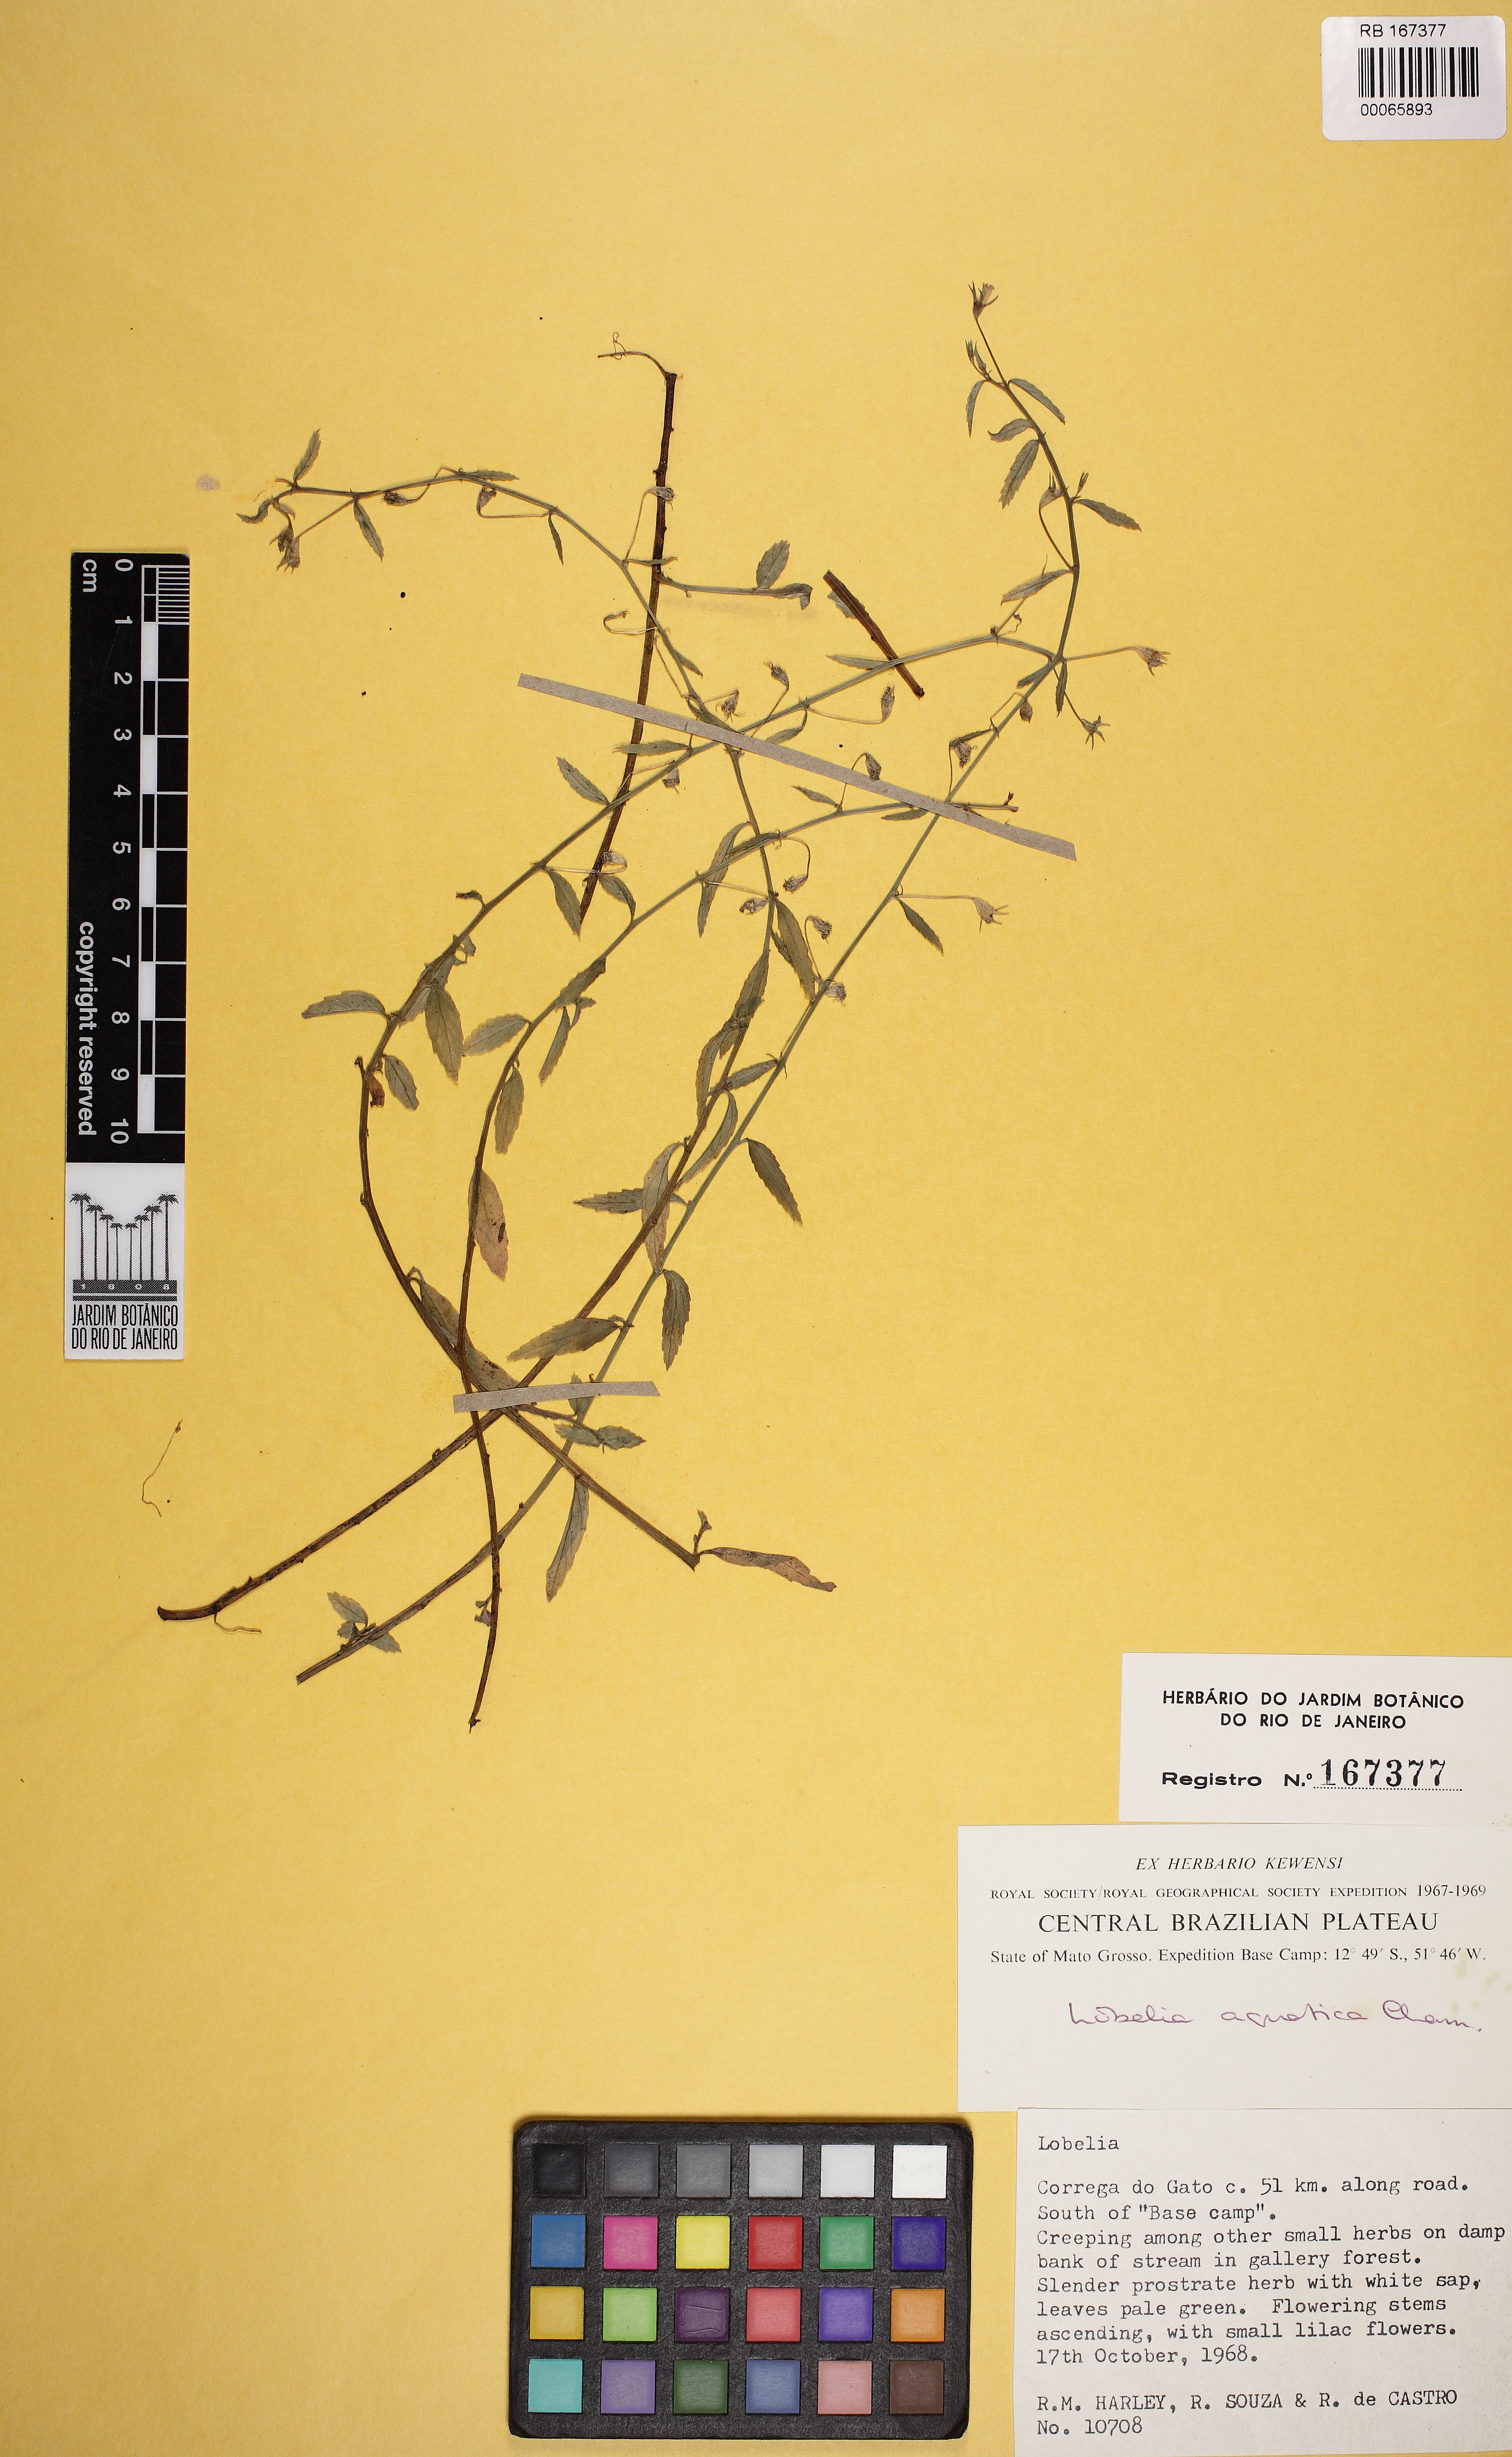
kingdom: Plantae
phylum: Tracheophyta
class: Magnoliopsida
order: Asterales
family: Campanulaceae
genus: Lobelia
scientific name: Lobelia aquatica
